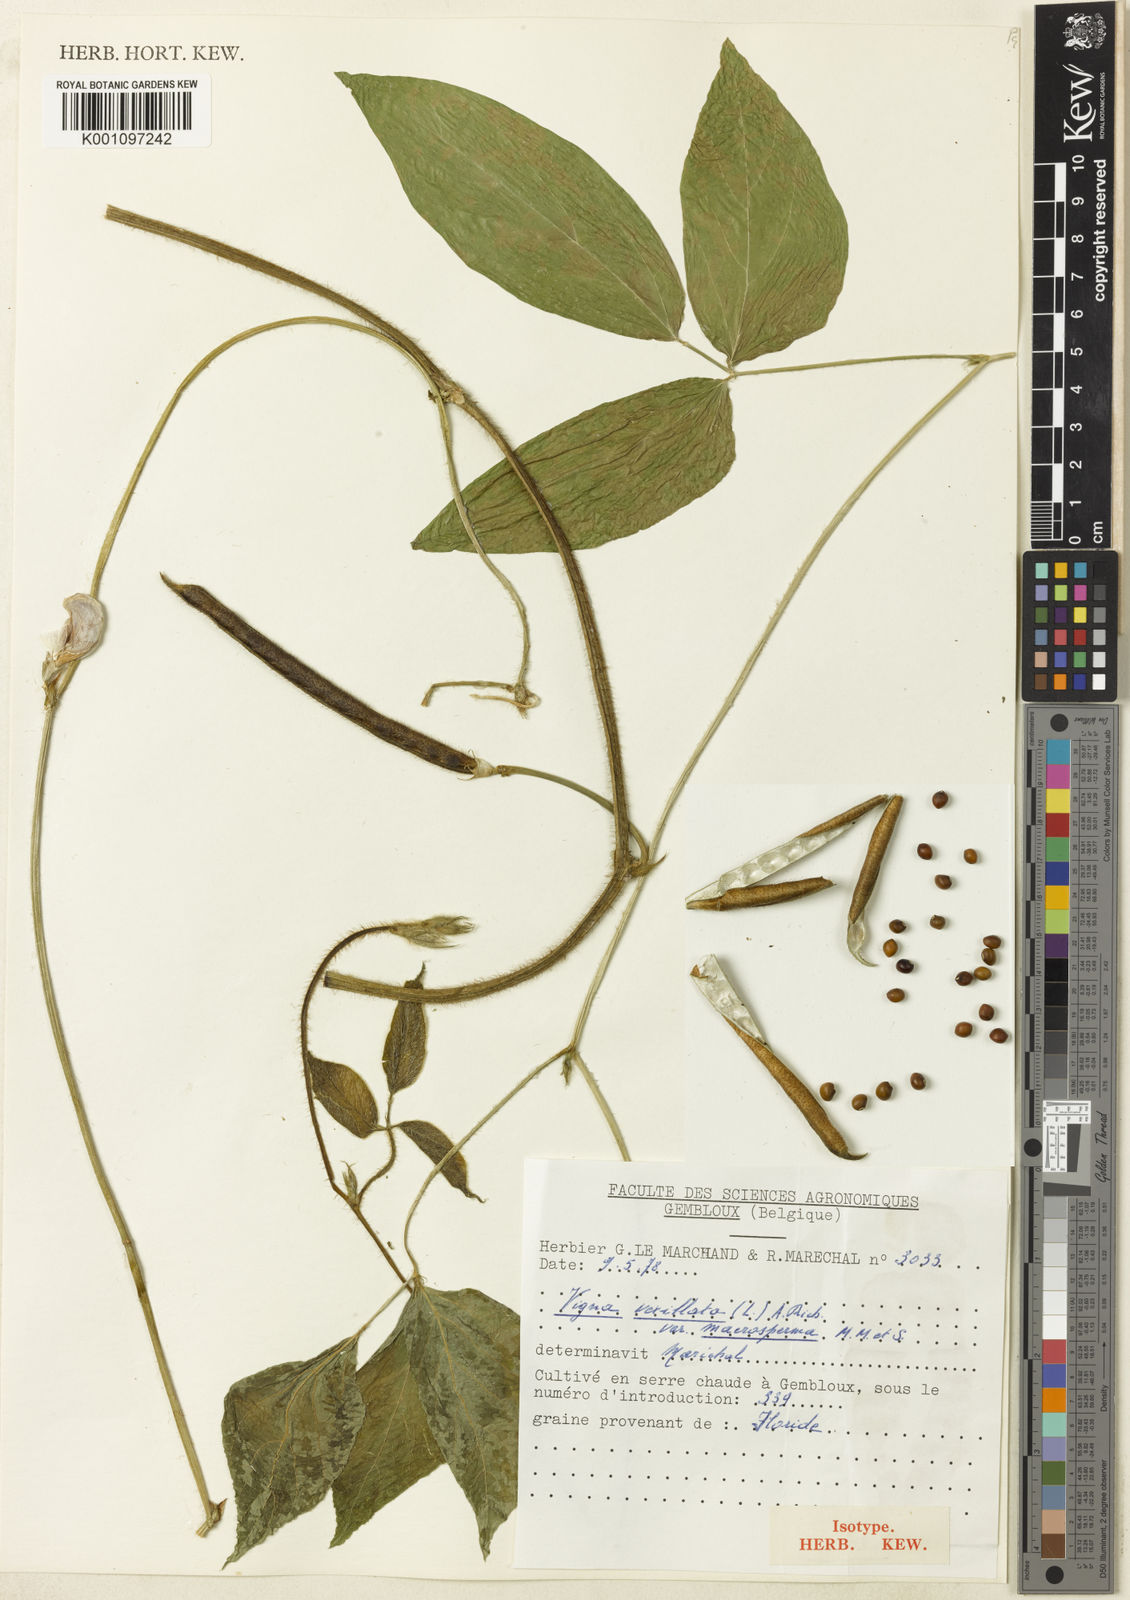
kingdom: Plantae
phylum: Tracheophyta
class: Magnoliopsida
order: Fabales
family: Fabaceae
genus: Vigna
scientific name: Vigna vexillata
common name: Zombi pea
